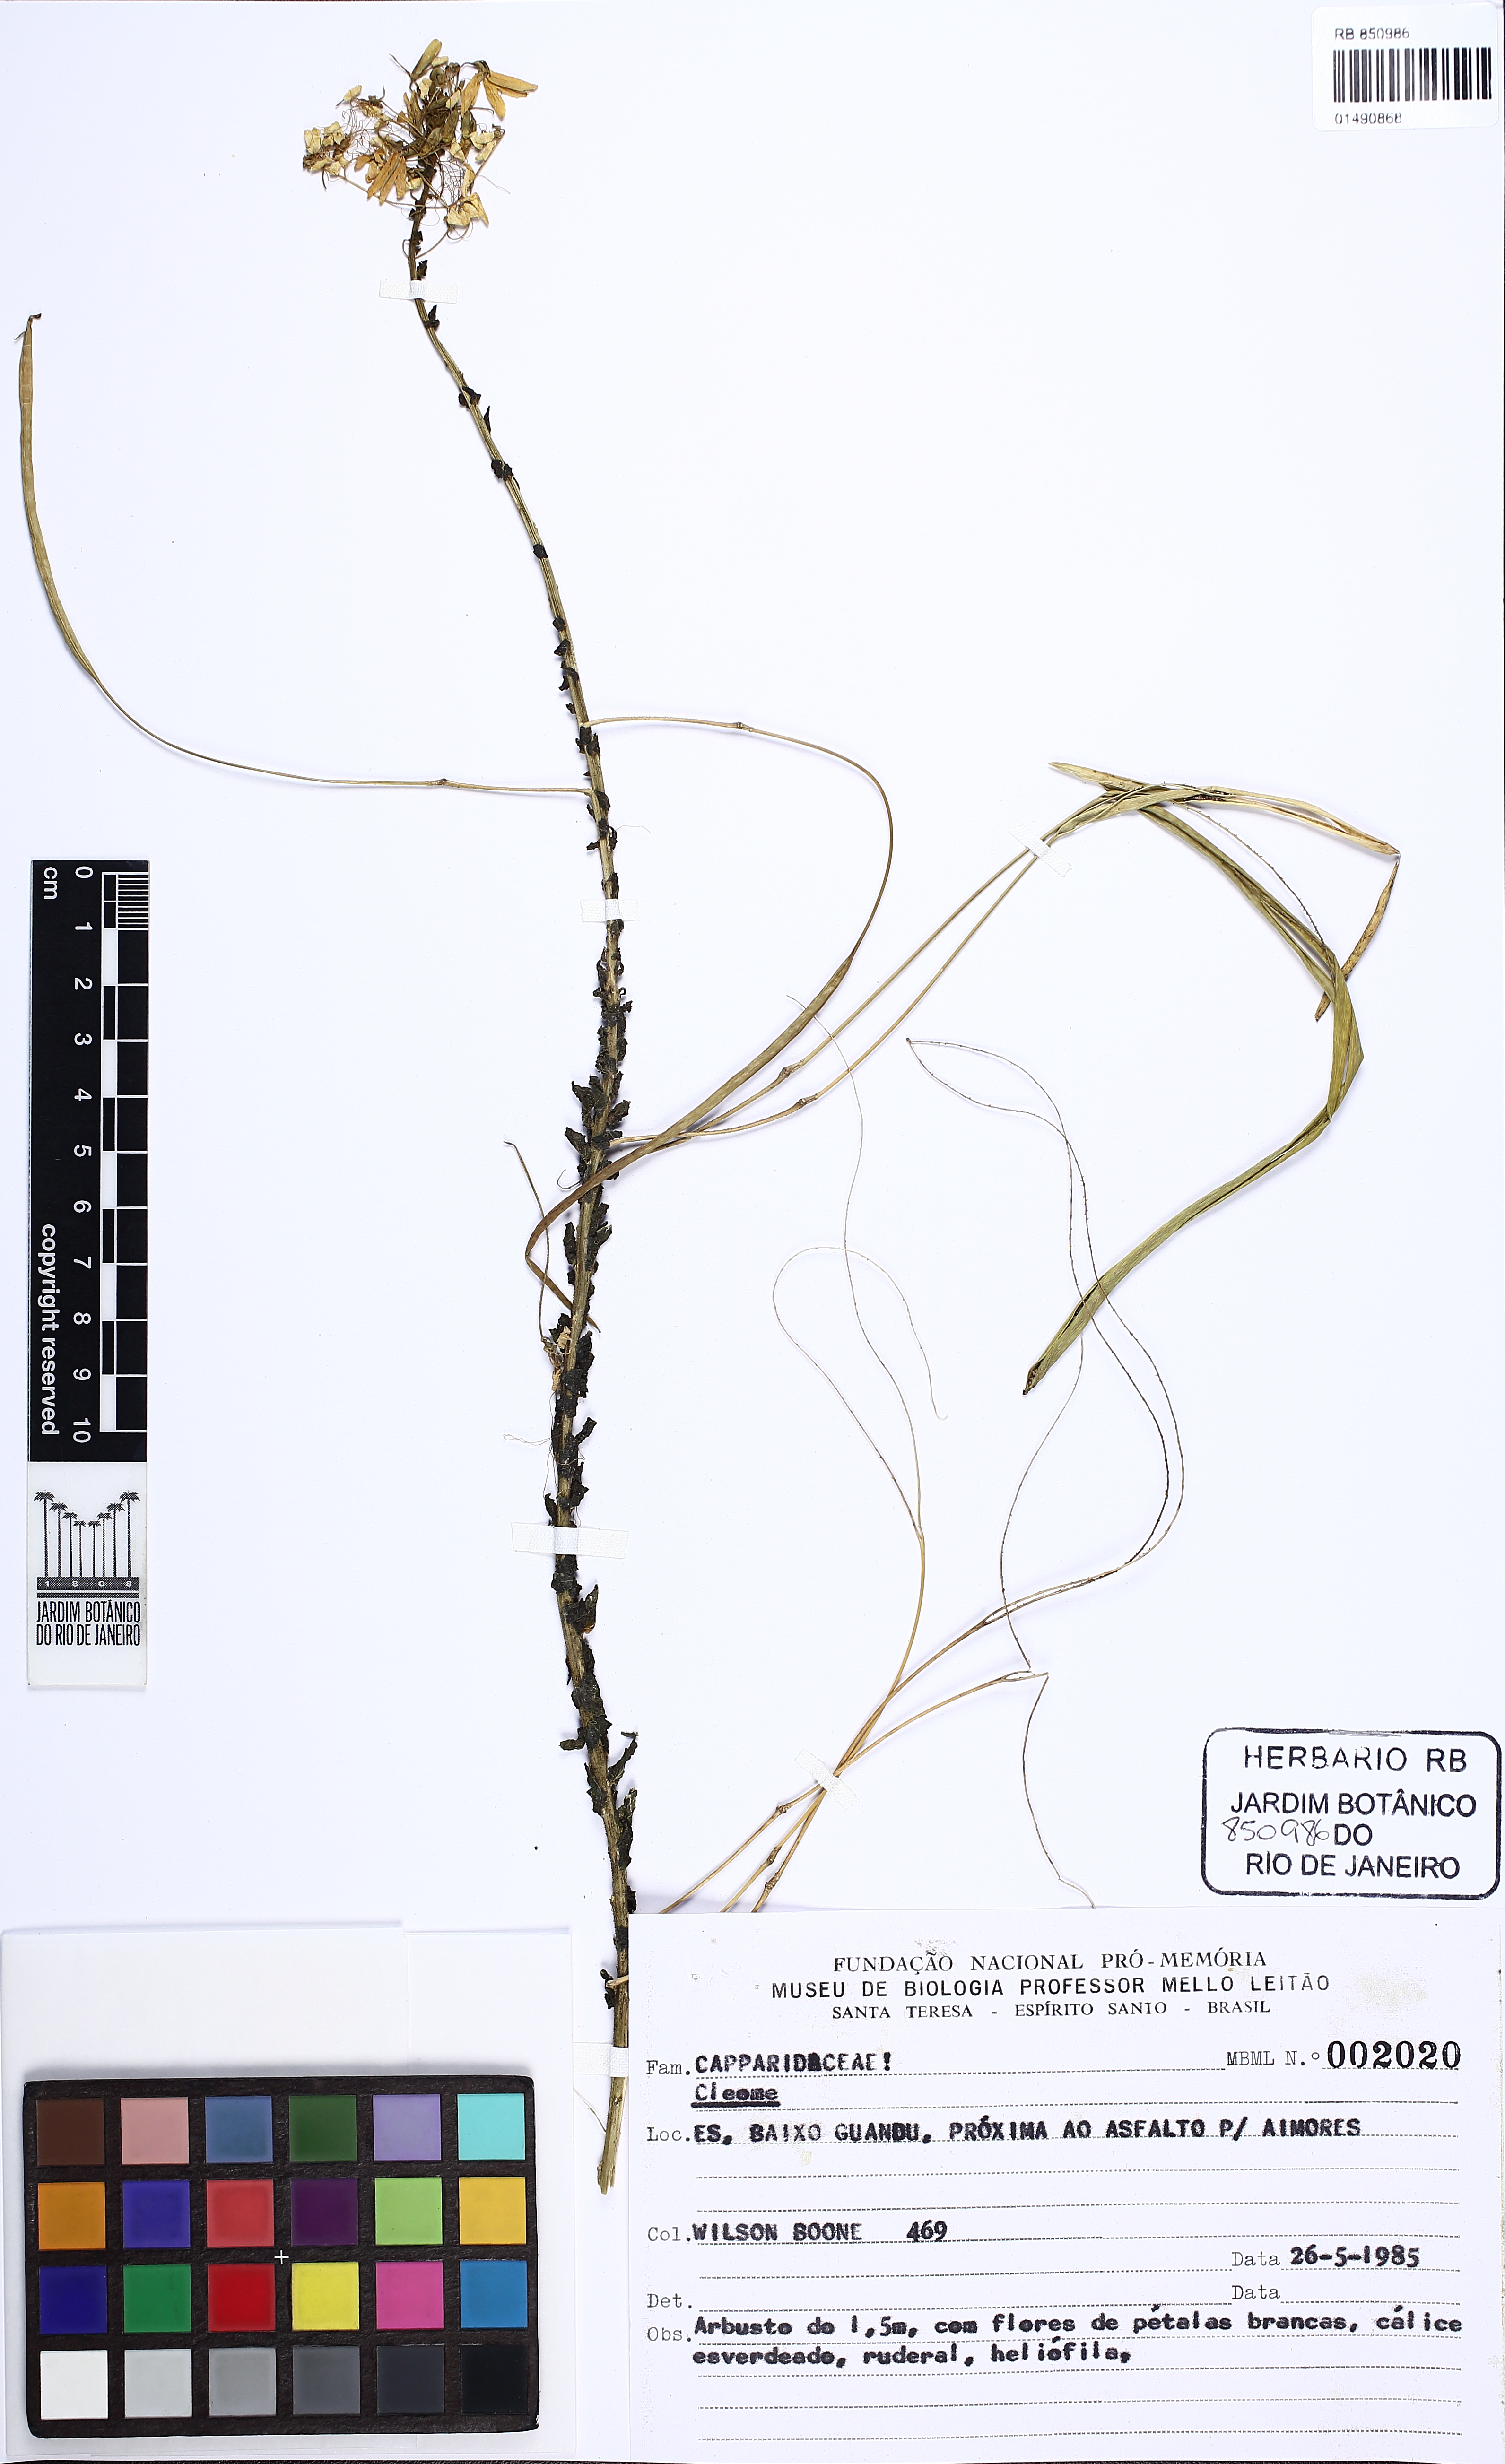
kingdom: Plantae
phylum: Tracheophyta
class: Magnoliopsida
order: Brassicales
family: Cleomaceae
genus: Cleome
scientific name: Cleome
